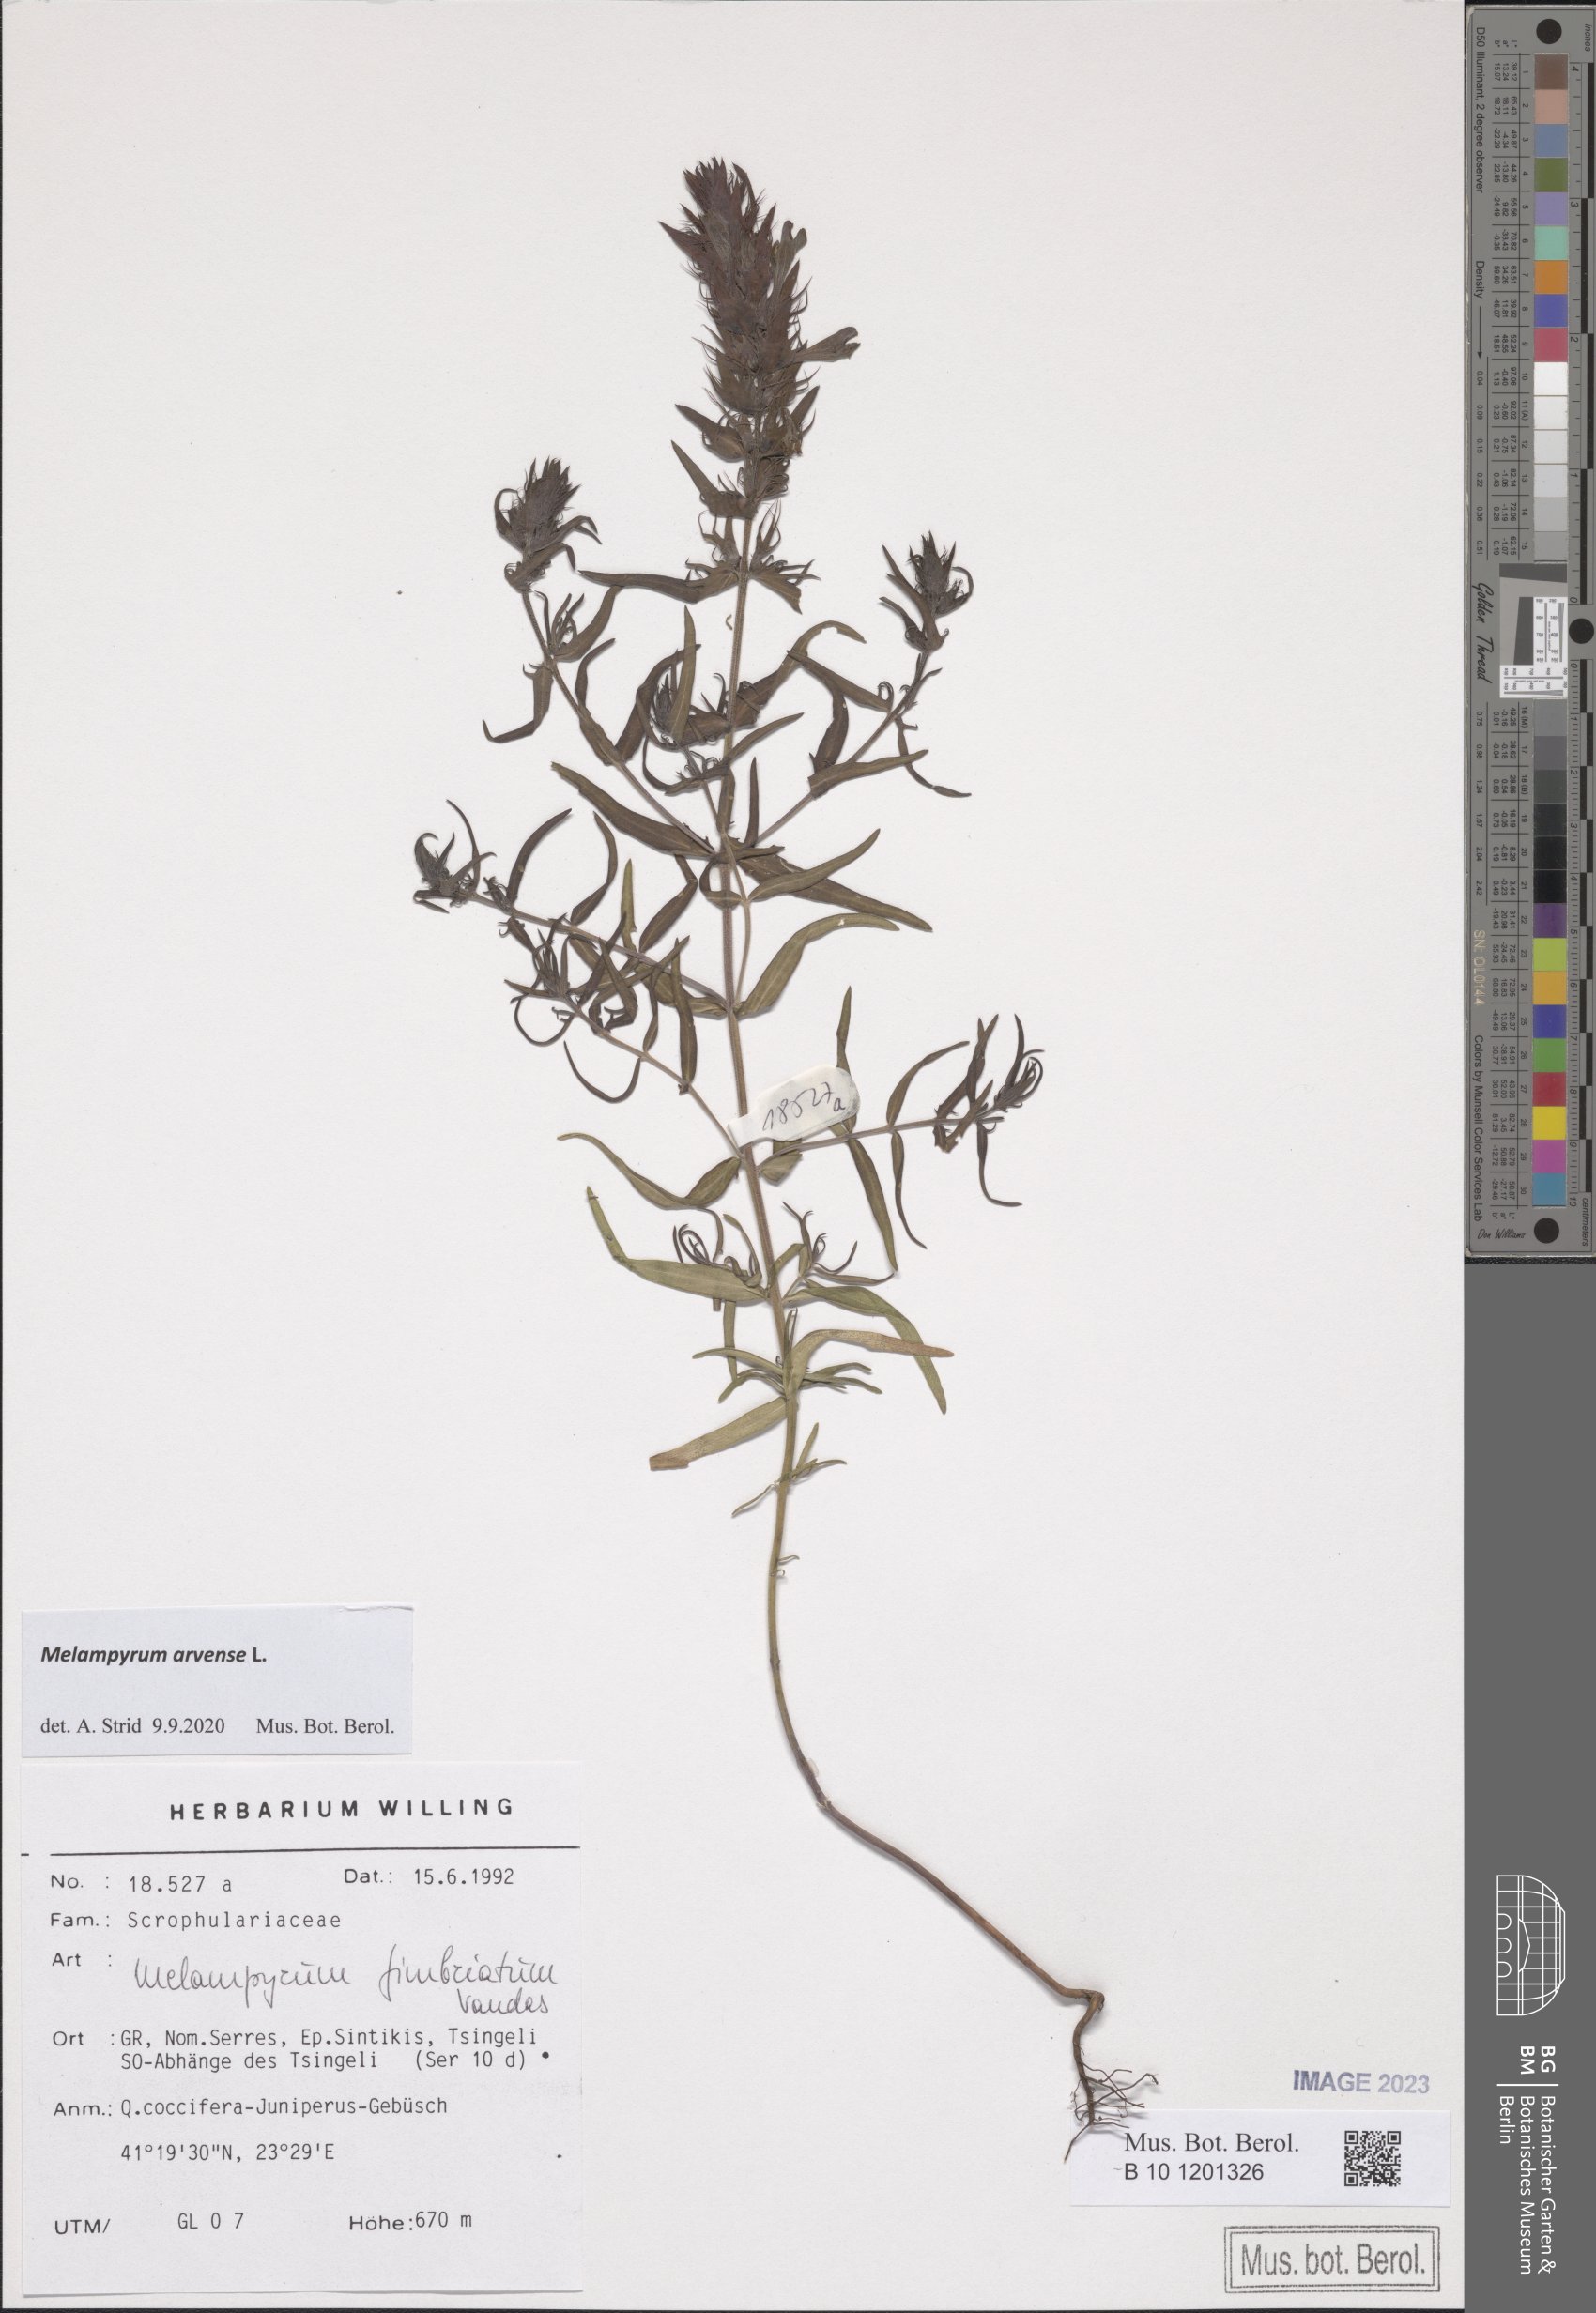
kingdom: Plantae
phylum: Tracheophyta
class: Magnoliopsida
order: Lamiales
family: Orobanchaceae
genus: Melampyrum
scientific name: Melampyrum arvense
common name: Field cow-wheat
